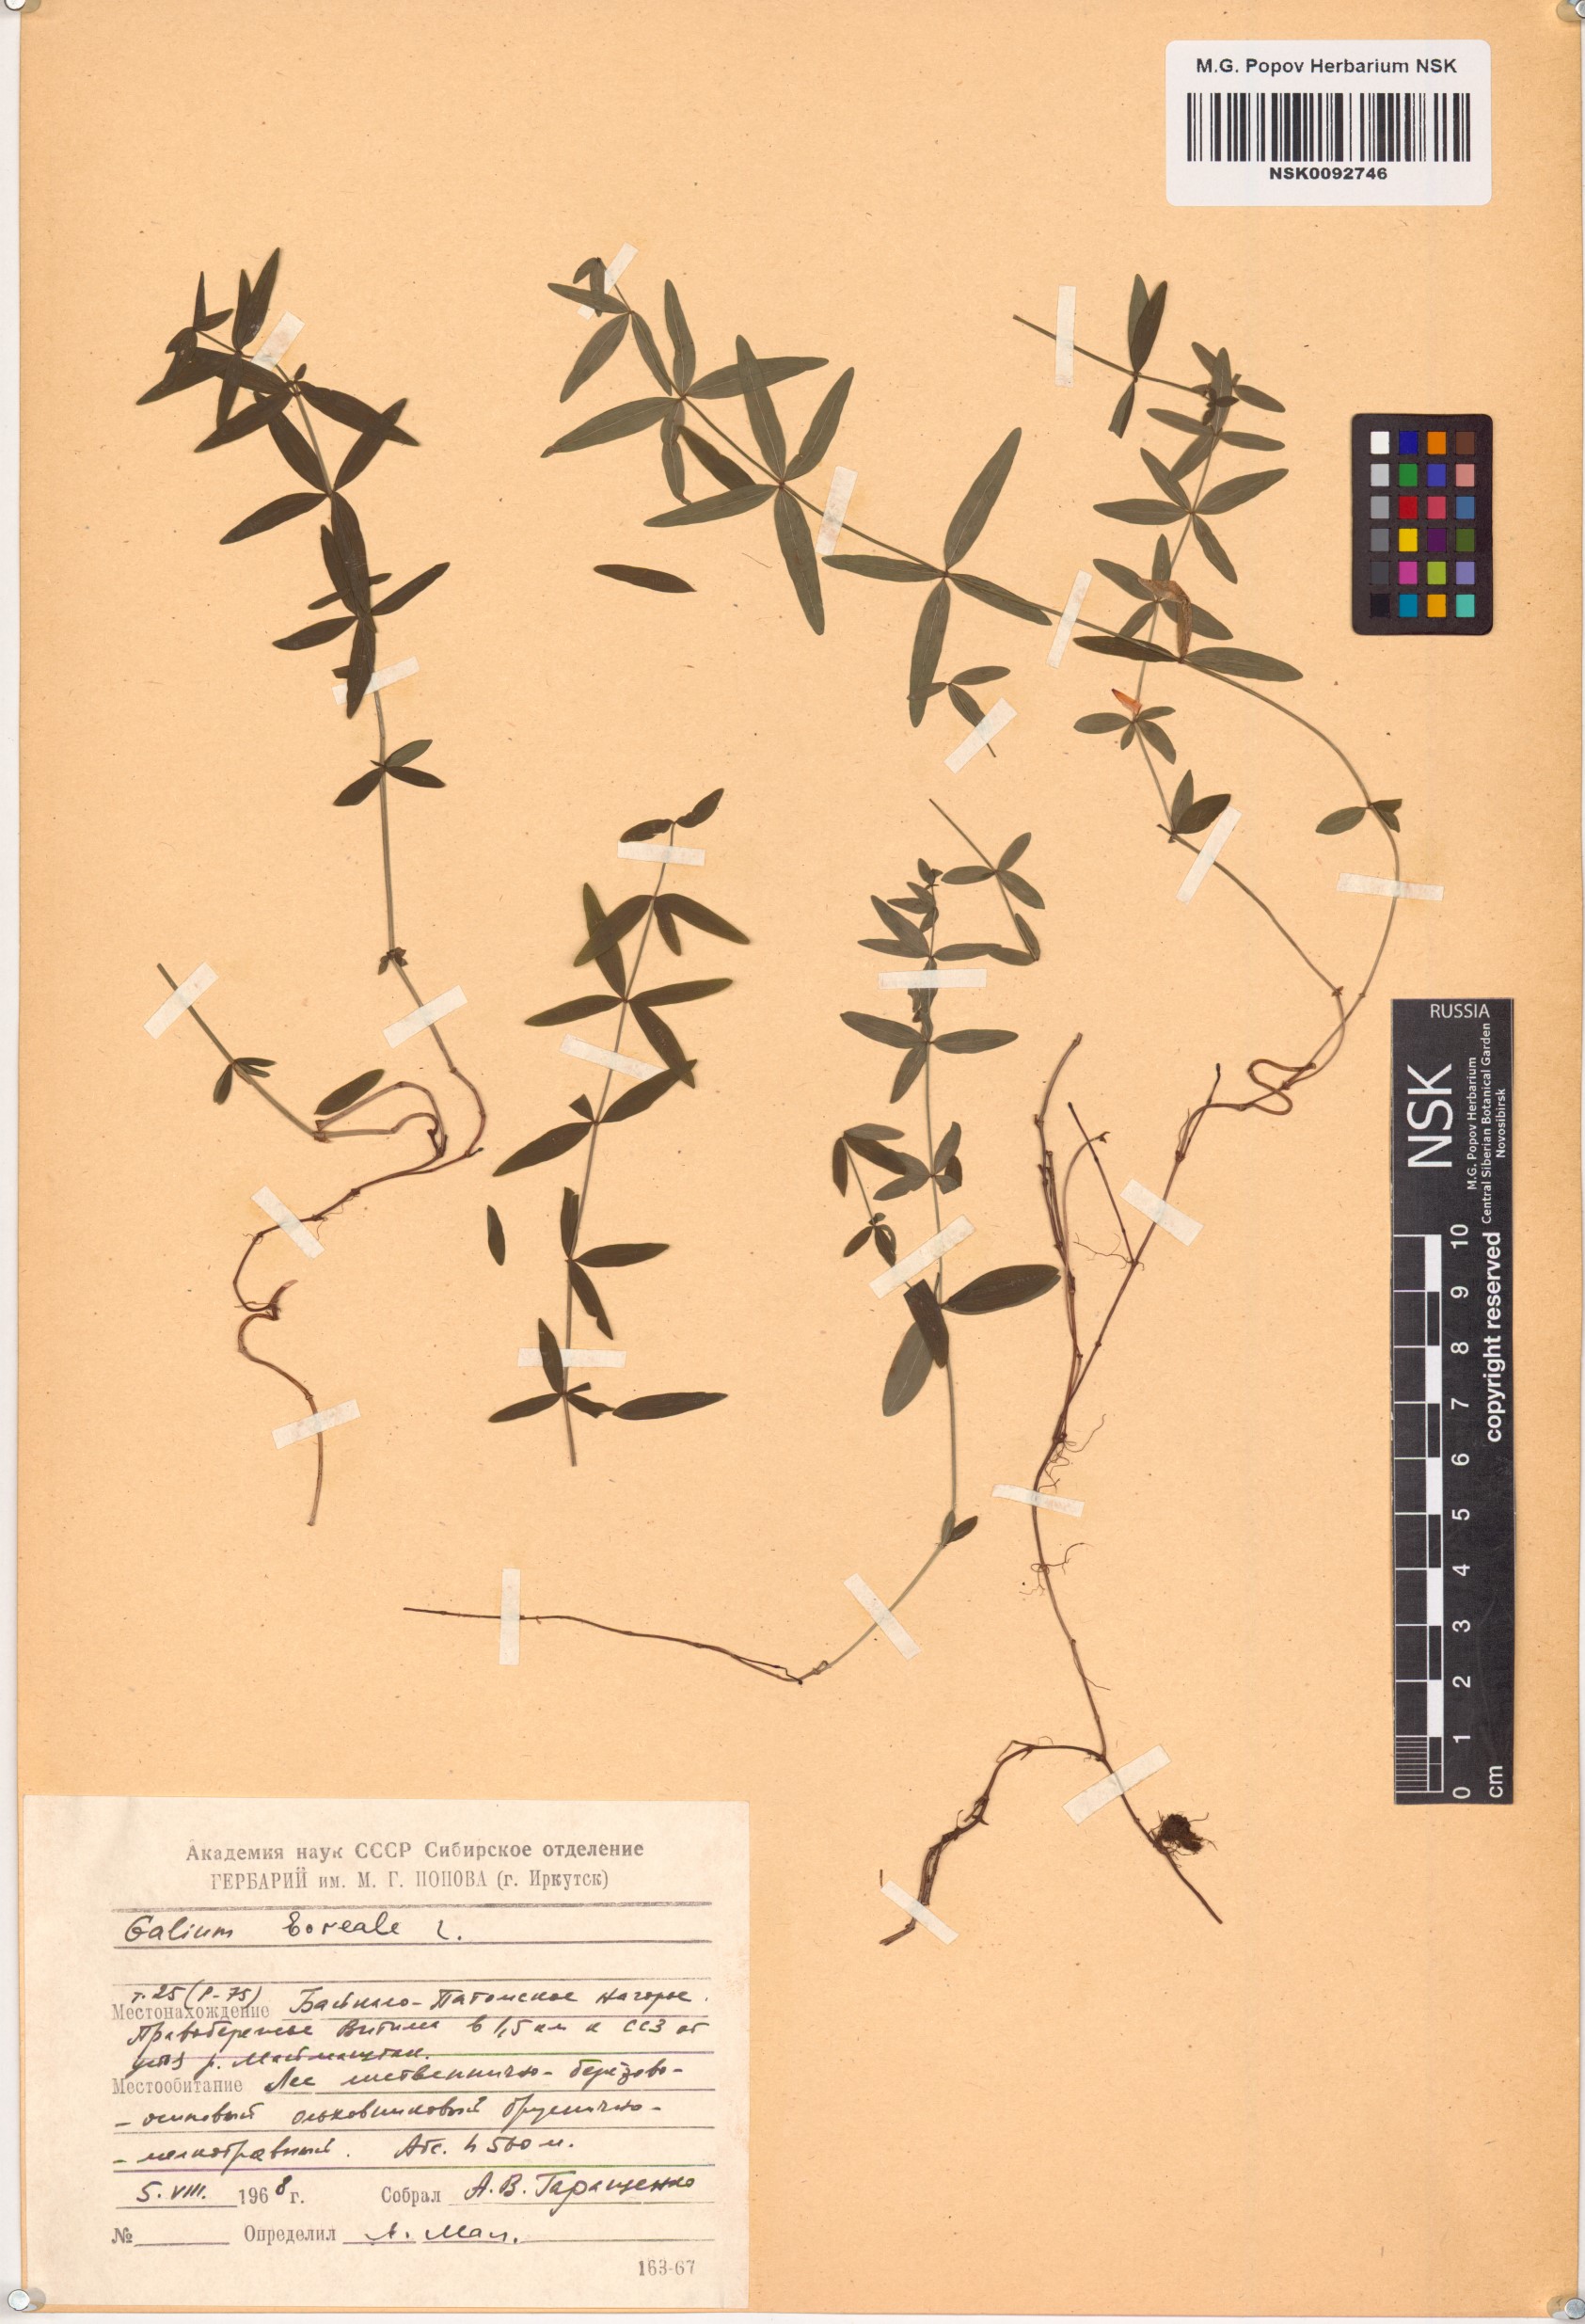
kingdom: Plantae
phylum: Tracheophyta
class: Magnoliopsida
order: Gentianales
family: Rubiaceae
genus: Galium
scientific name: Galium boreale
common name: Northern bedstraw
